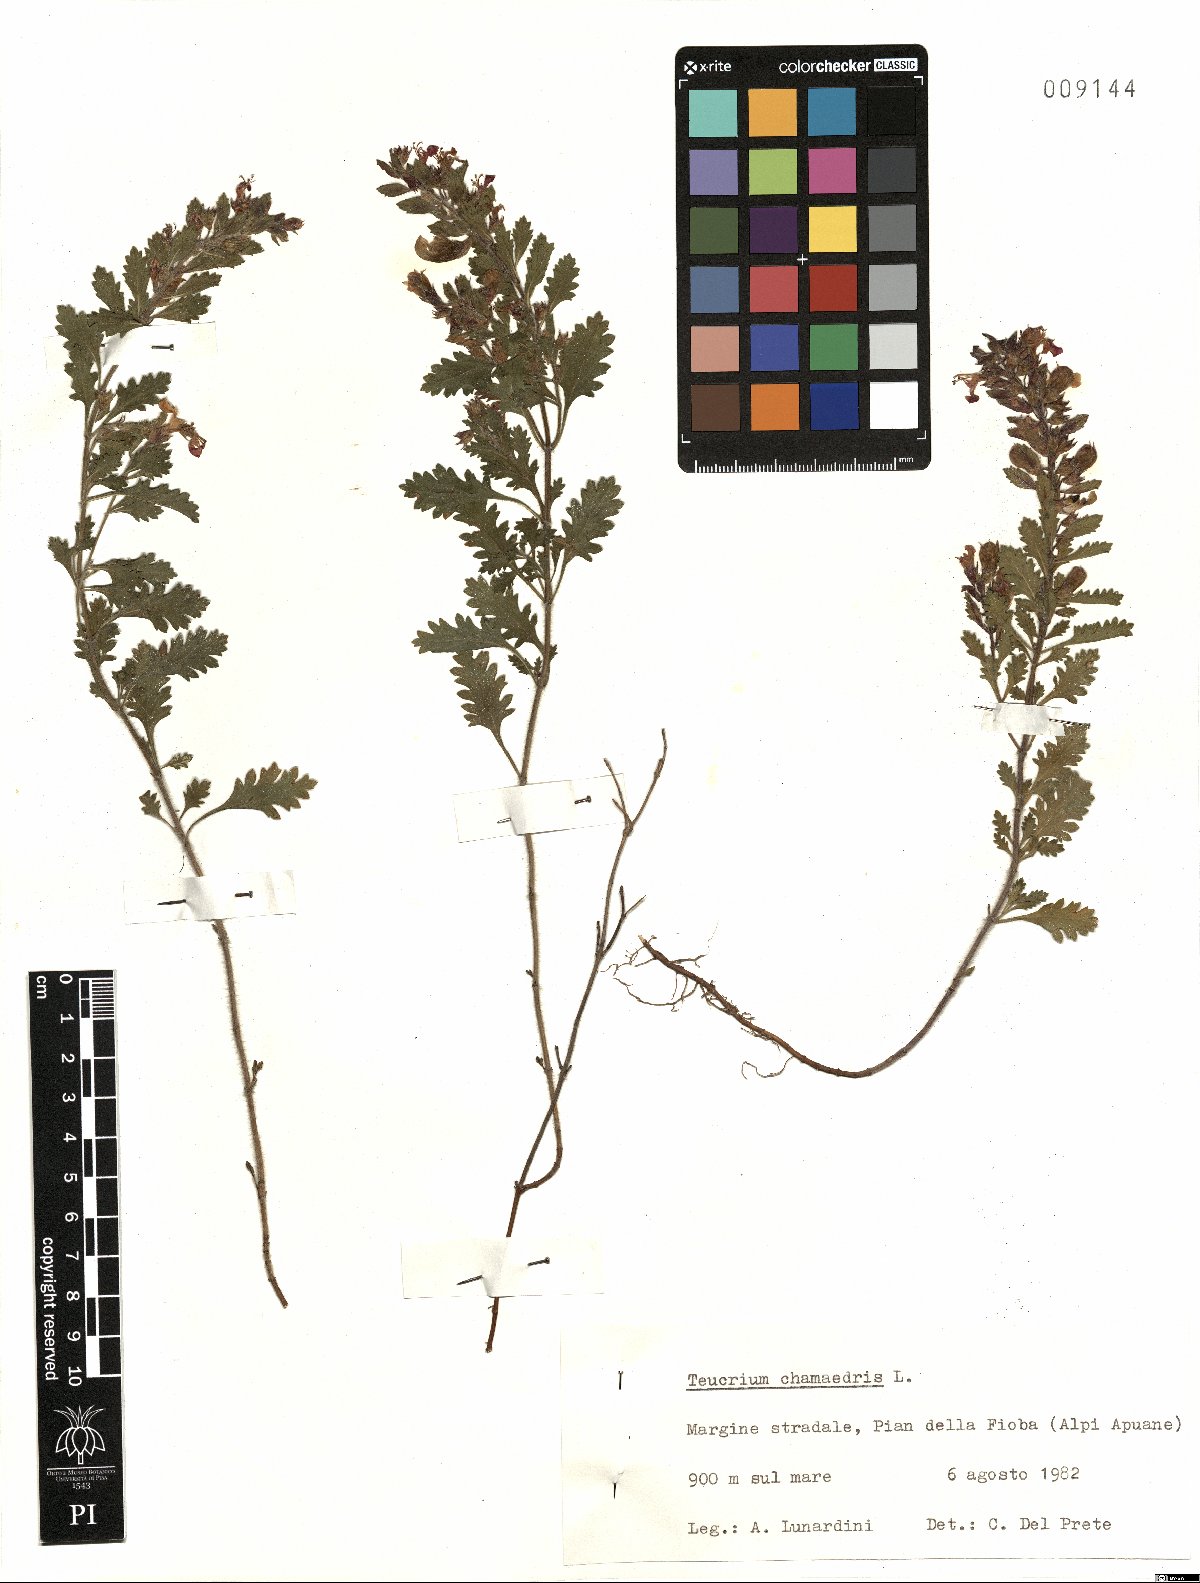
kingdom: Plantae
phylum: Tracheophyta
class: Magnoliopsida
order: Lamiales
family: Lamiaceae
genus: Teucrium
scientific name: Teucrium chamaedrys
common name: Wall germander
